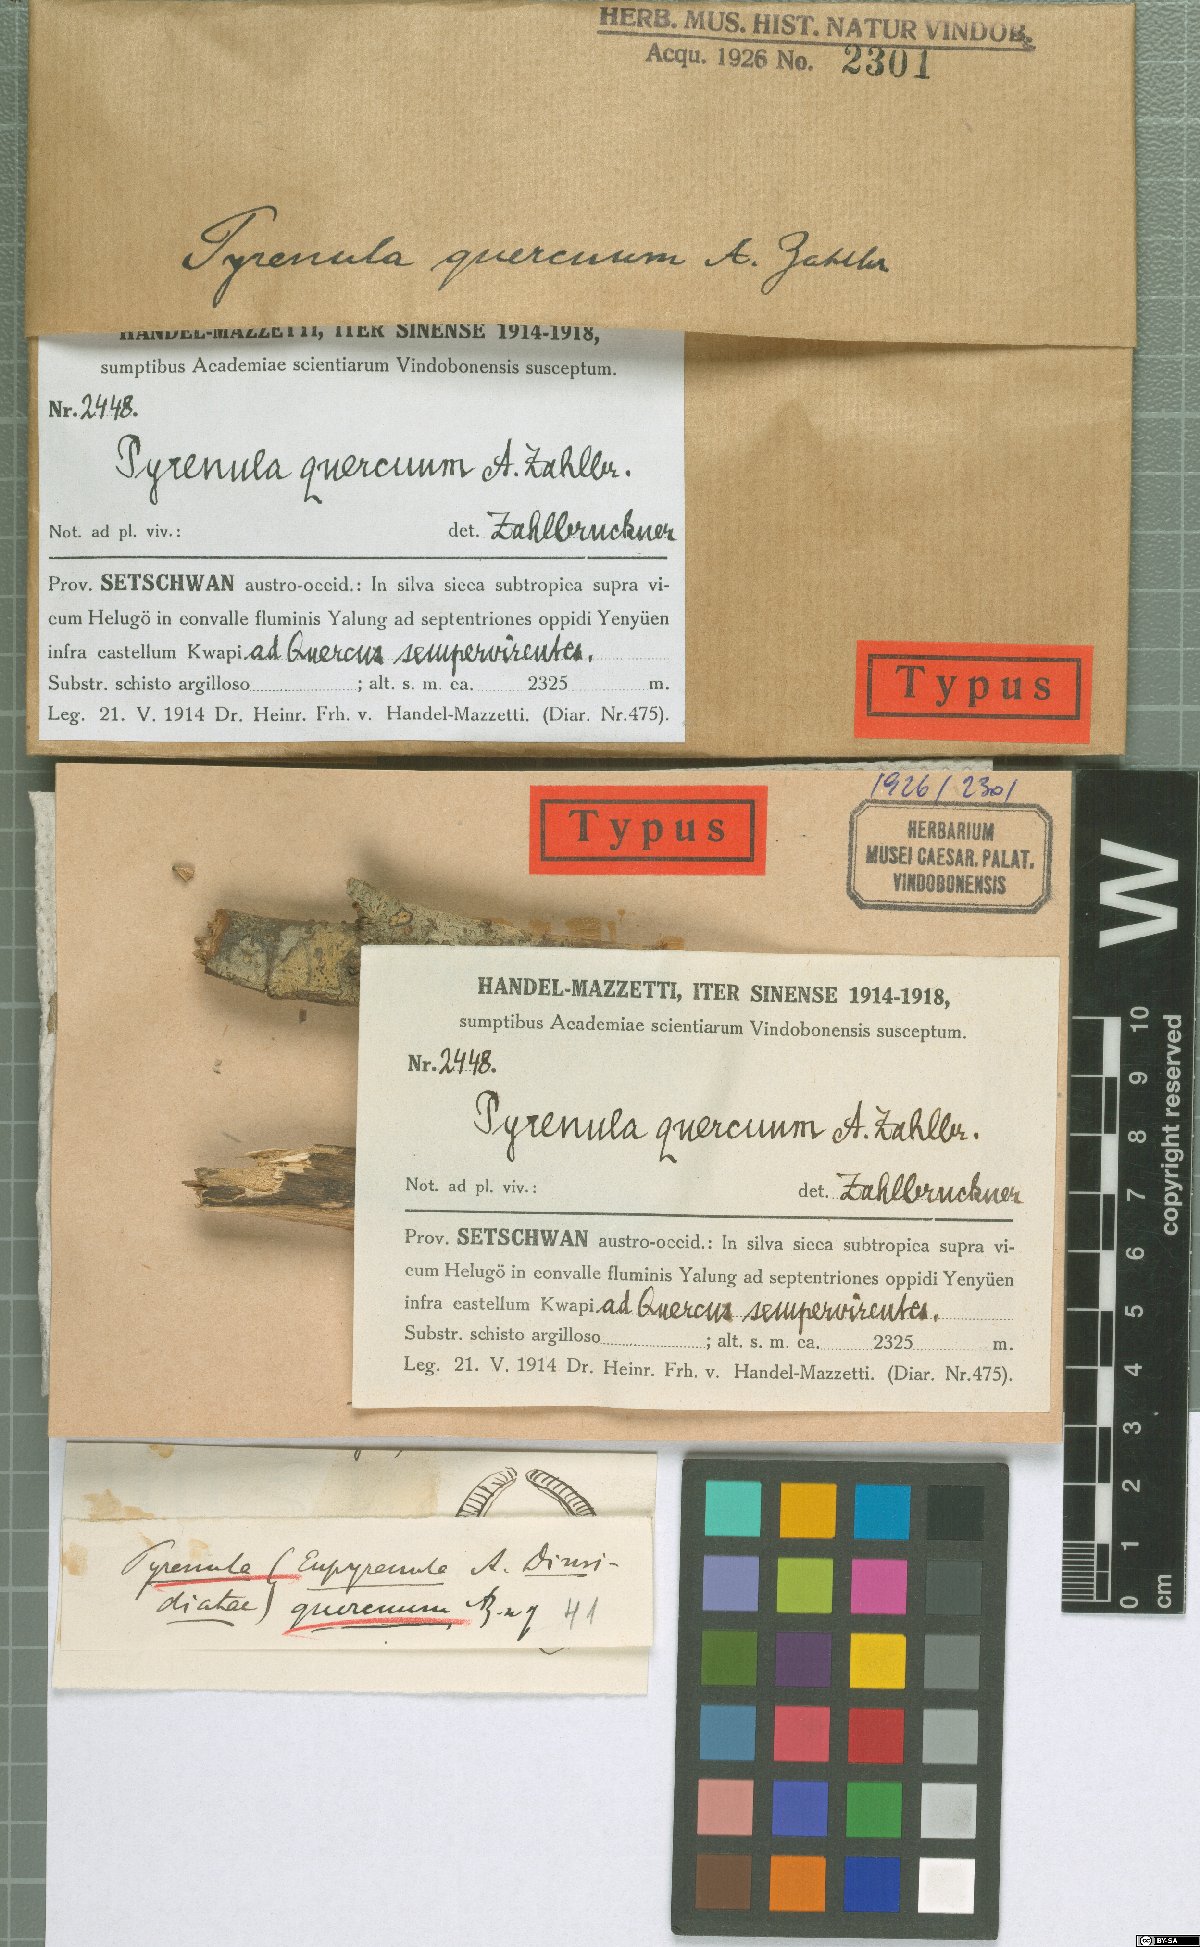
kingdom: Fungi
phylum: Ascomycota
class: Eurotiomycetes
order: Pyrenulales
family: Pyrenulaceae
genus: Pyrenula
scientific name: Pyrenula quercus
